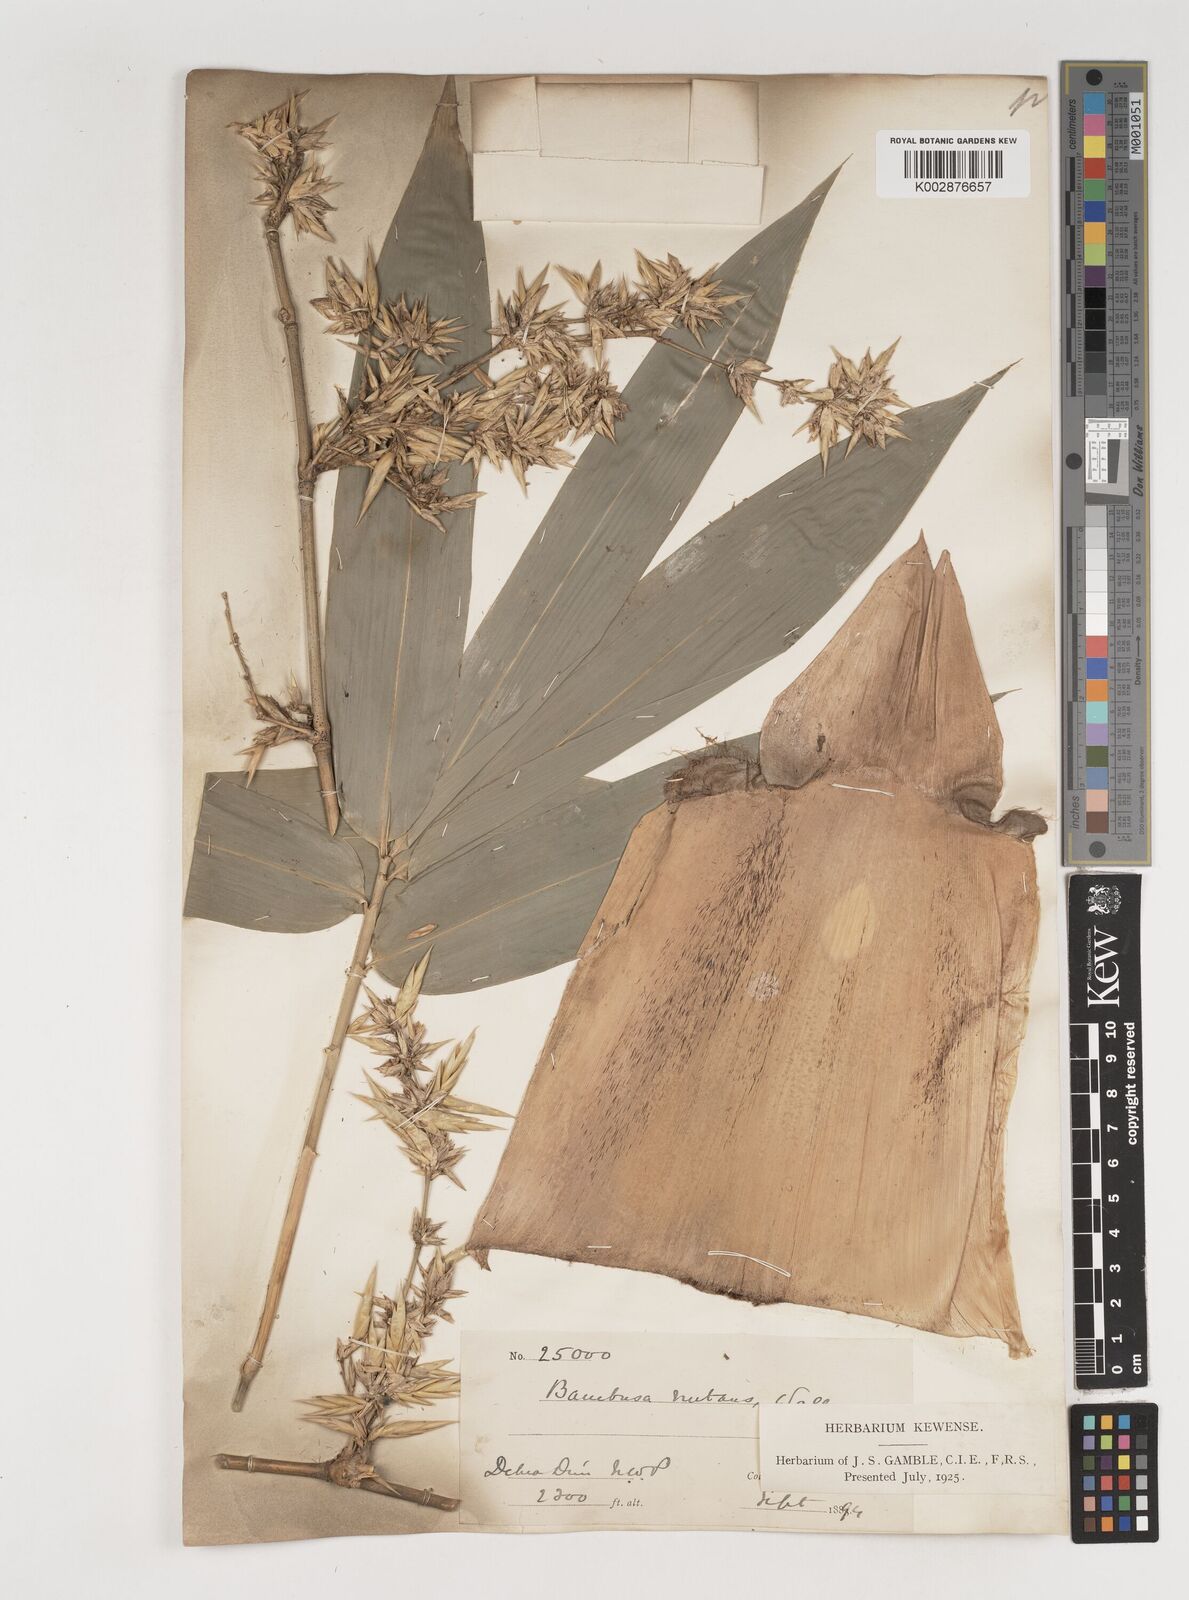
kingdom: Plantae
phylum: Tracheophyta
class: Liliopsida
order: Poales
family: Poaceae
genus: Bambusa
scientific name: Bambusa nutans
